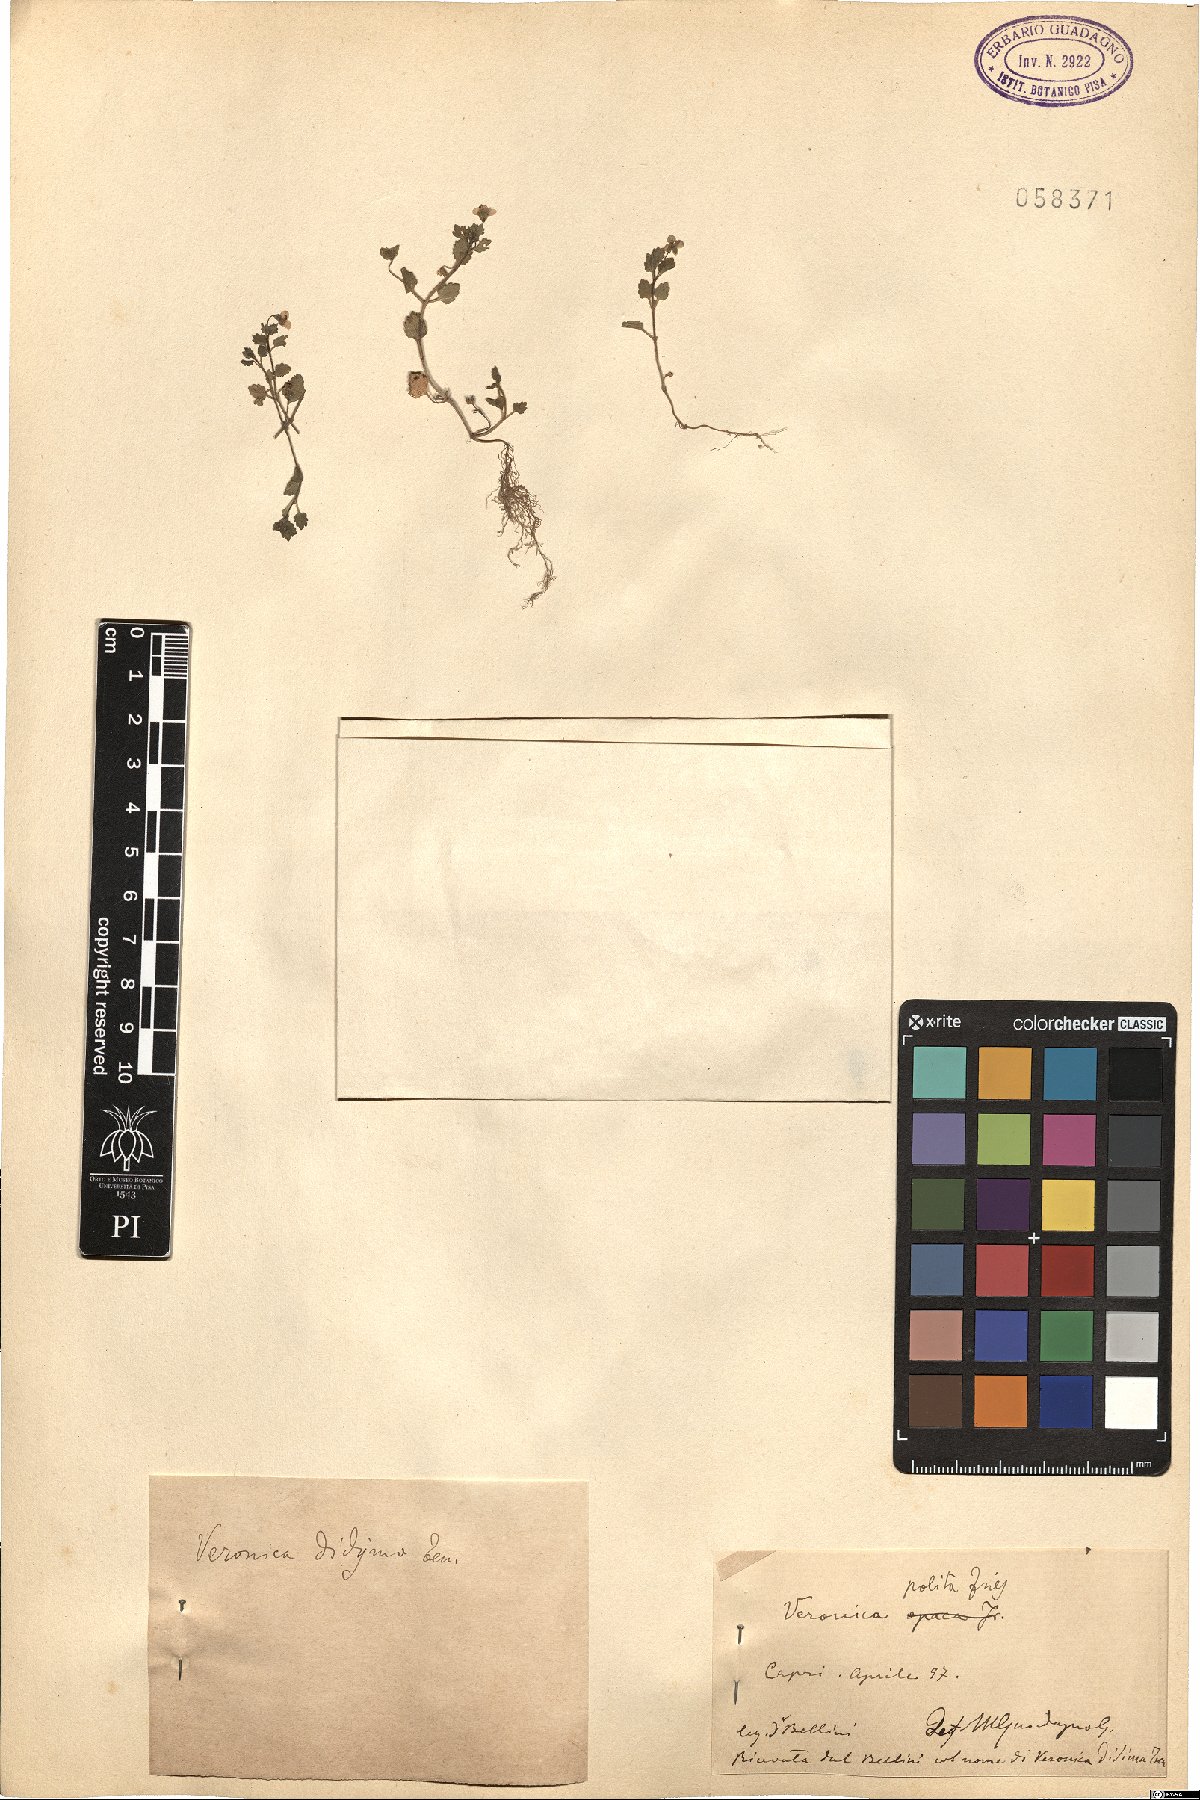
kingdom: Plantae
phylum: Tracheophyta
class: Magnoliopsida
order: Lamiales
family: Plantaginaceae
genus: Veronica
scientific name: Veronica polita
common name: Grey field-speedwell
